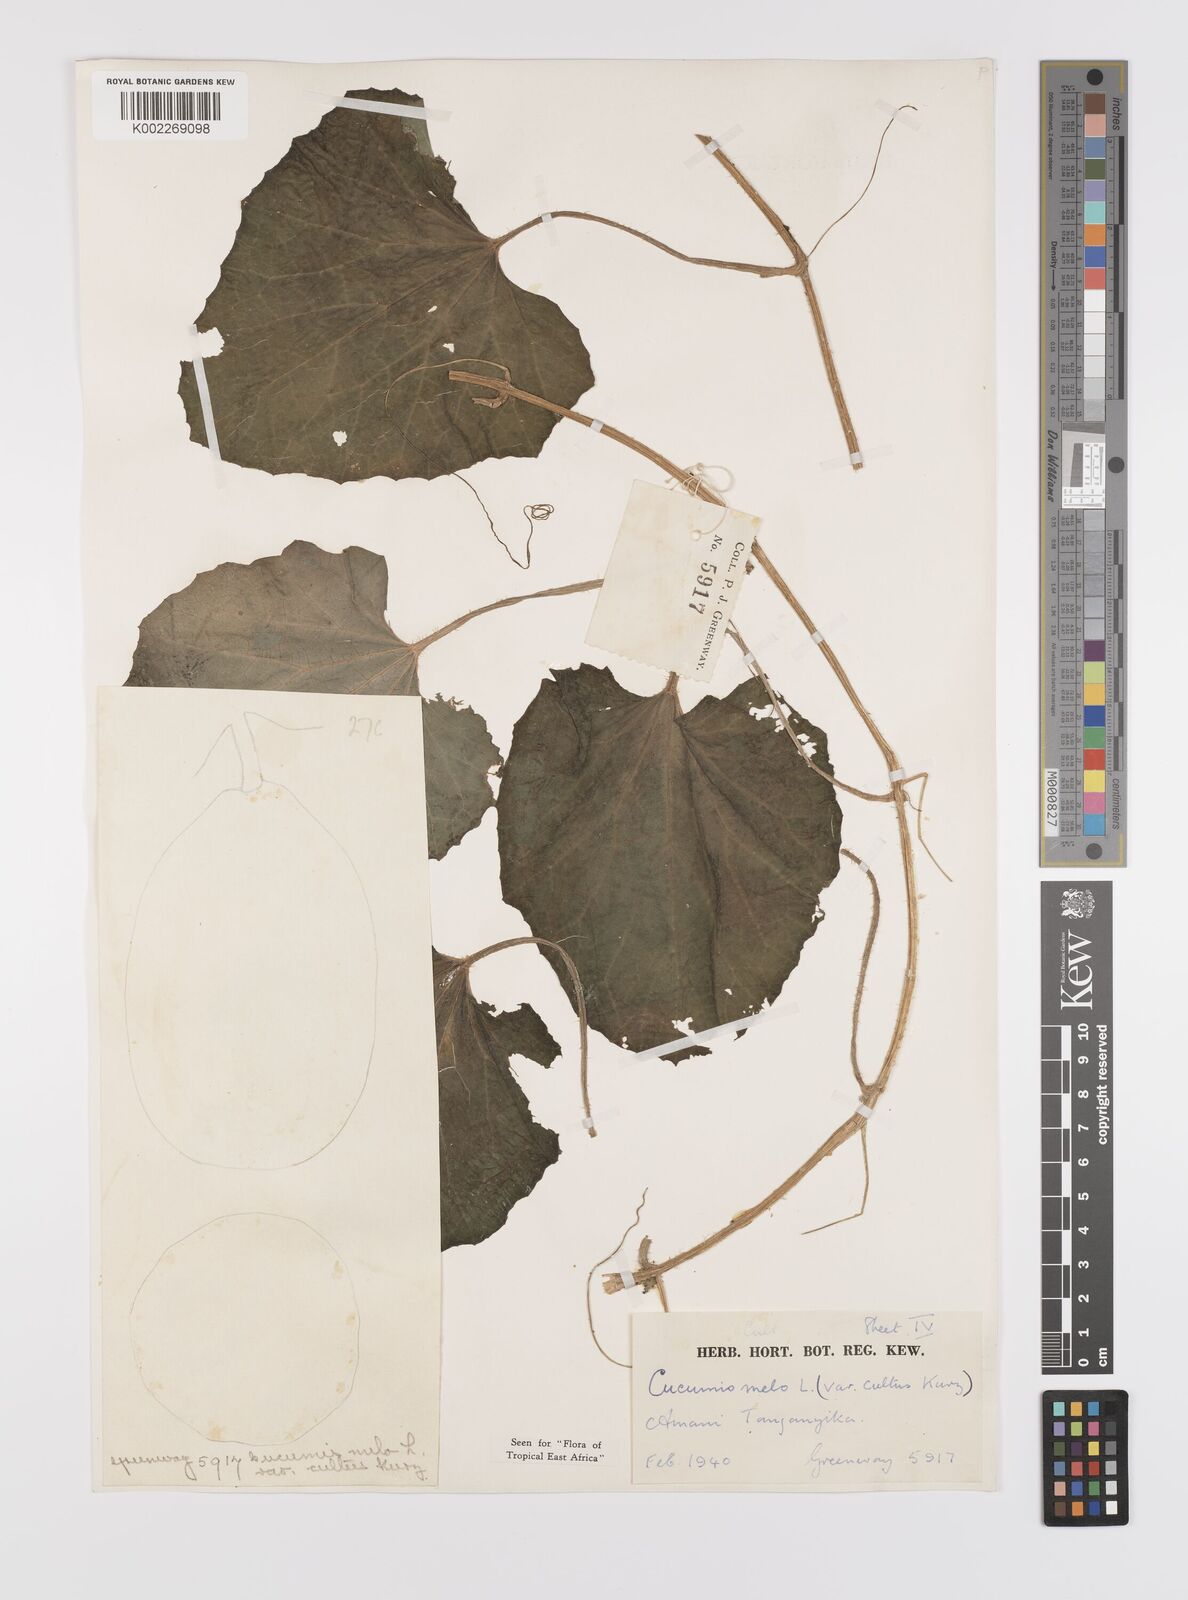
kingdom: Plantae
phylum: Tracheophyta
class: Magnoliopsida
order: Cucurbitales
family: Cucurbitaceae
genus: Cucumis
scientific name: Cucumis melo
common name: Melon
